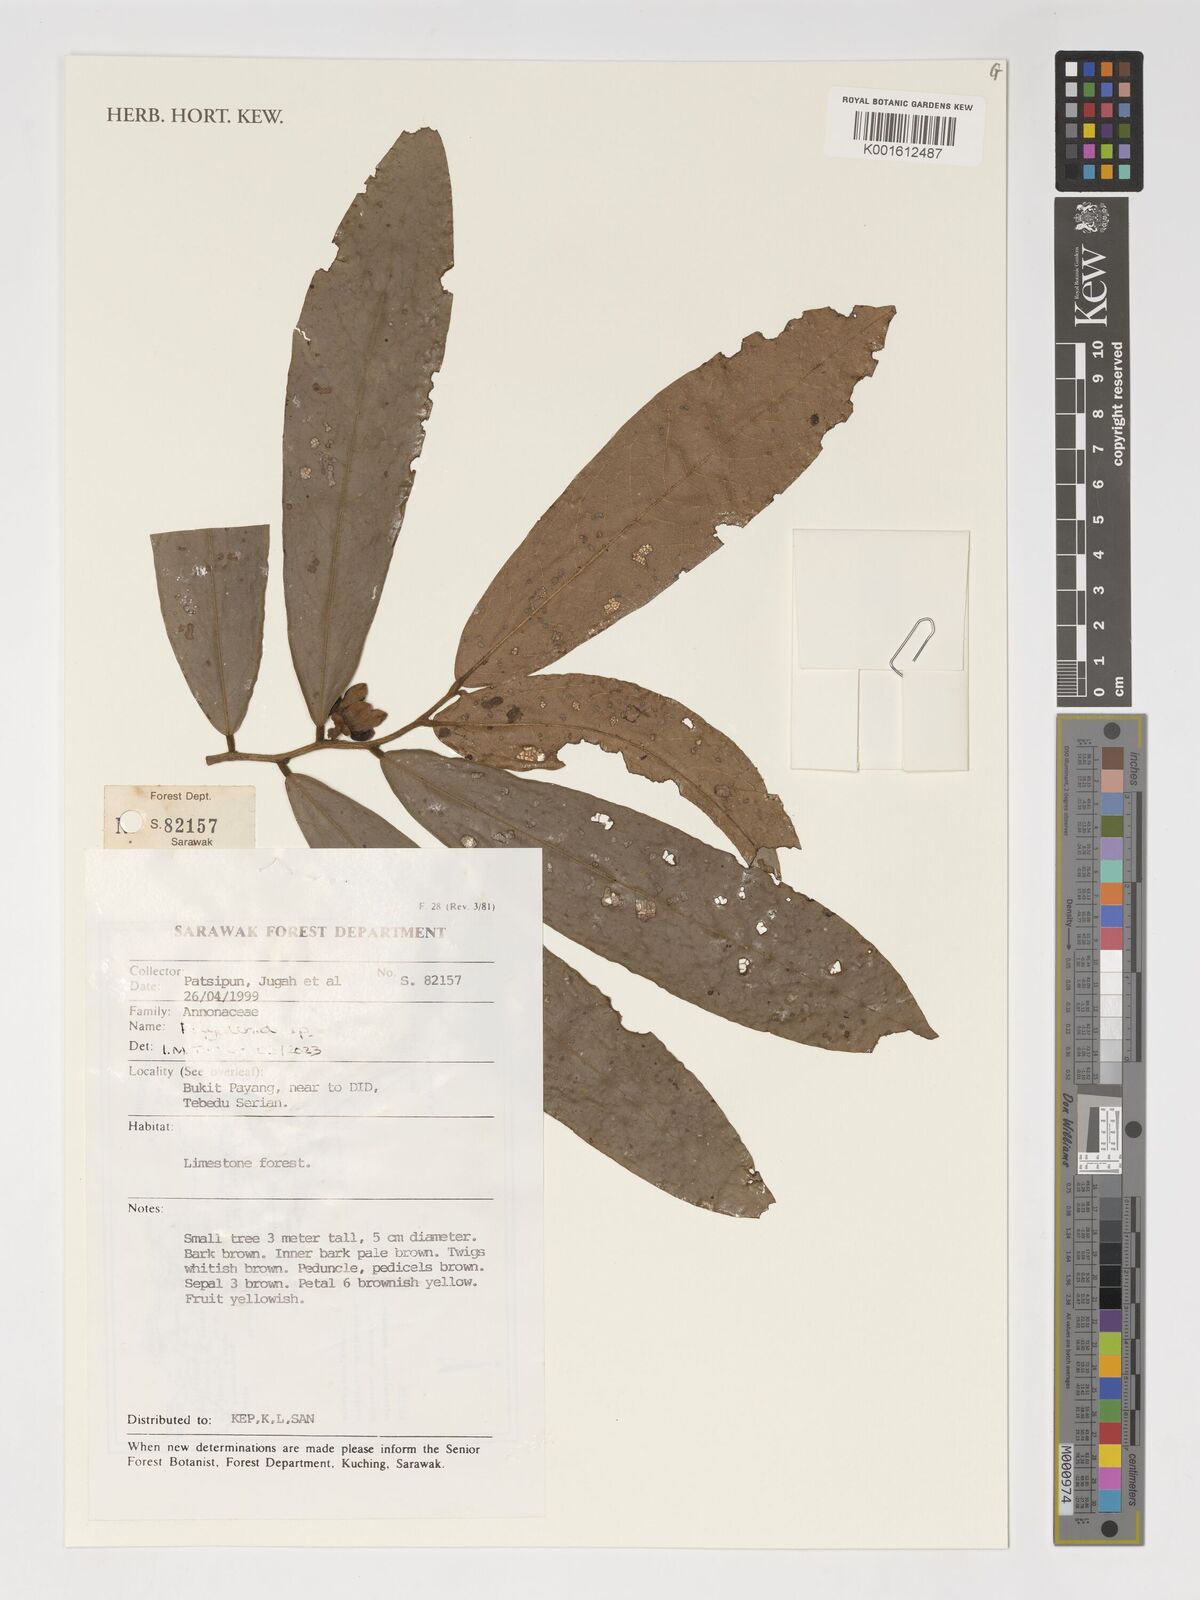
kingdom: Plantae
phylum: Tracheophyta
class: Magnoliopsida
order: Magnoliales
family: Annonaceae
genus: Polyalthia
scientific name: Polyalthia
